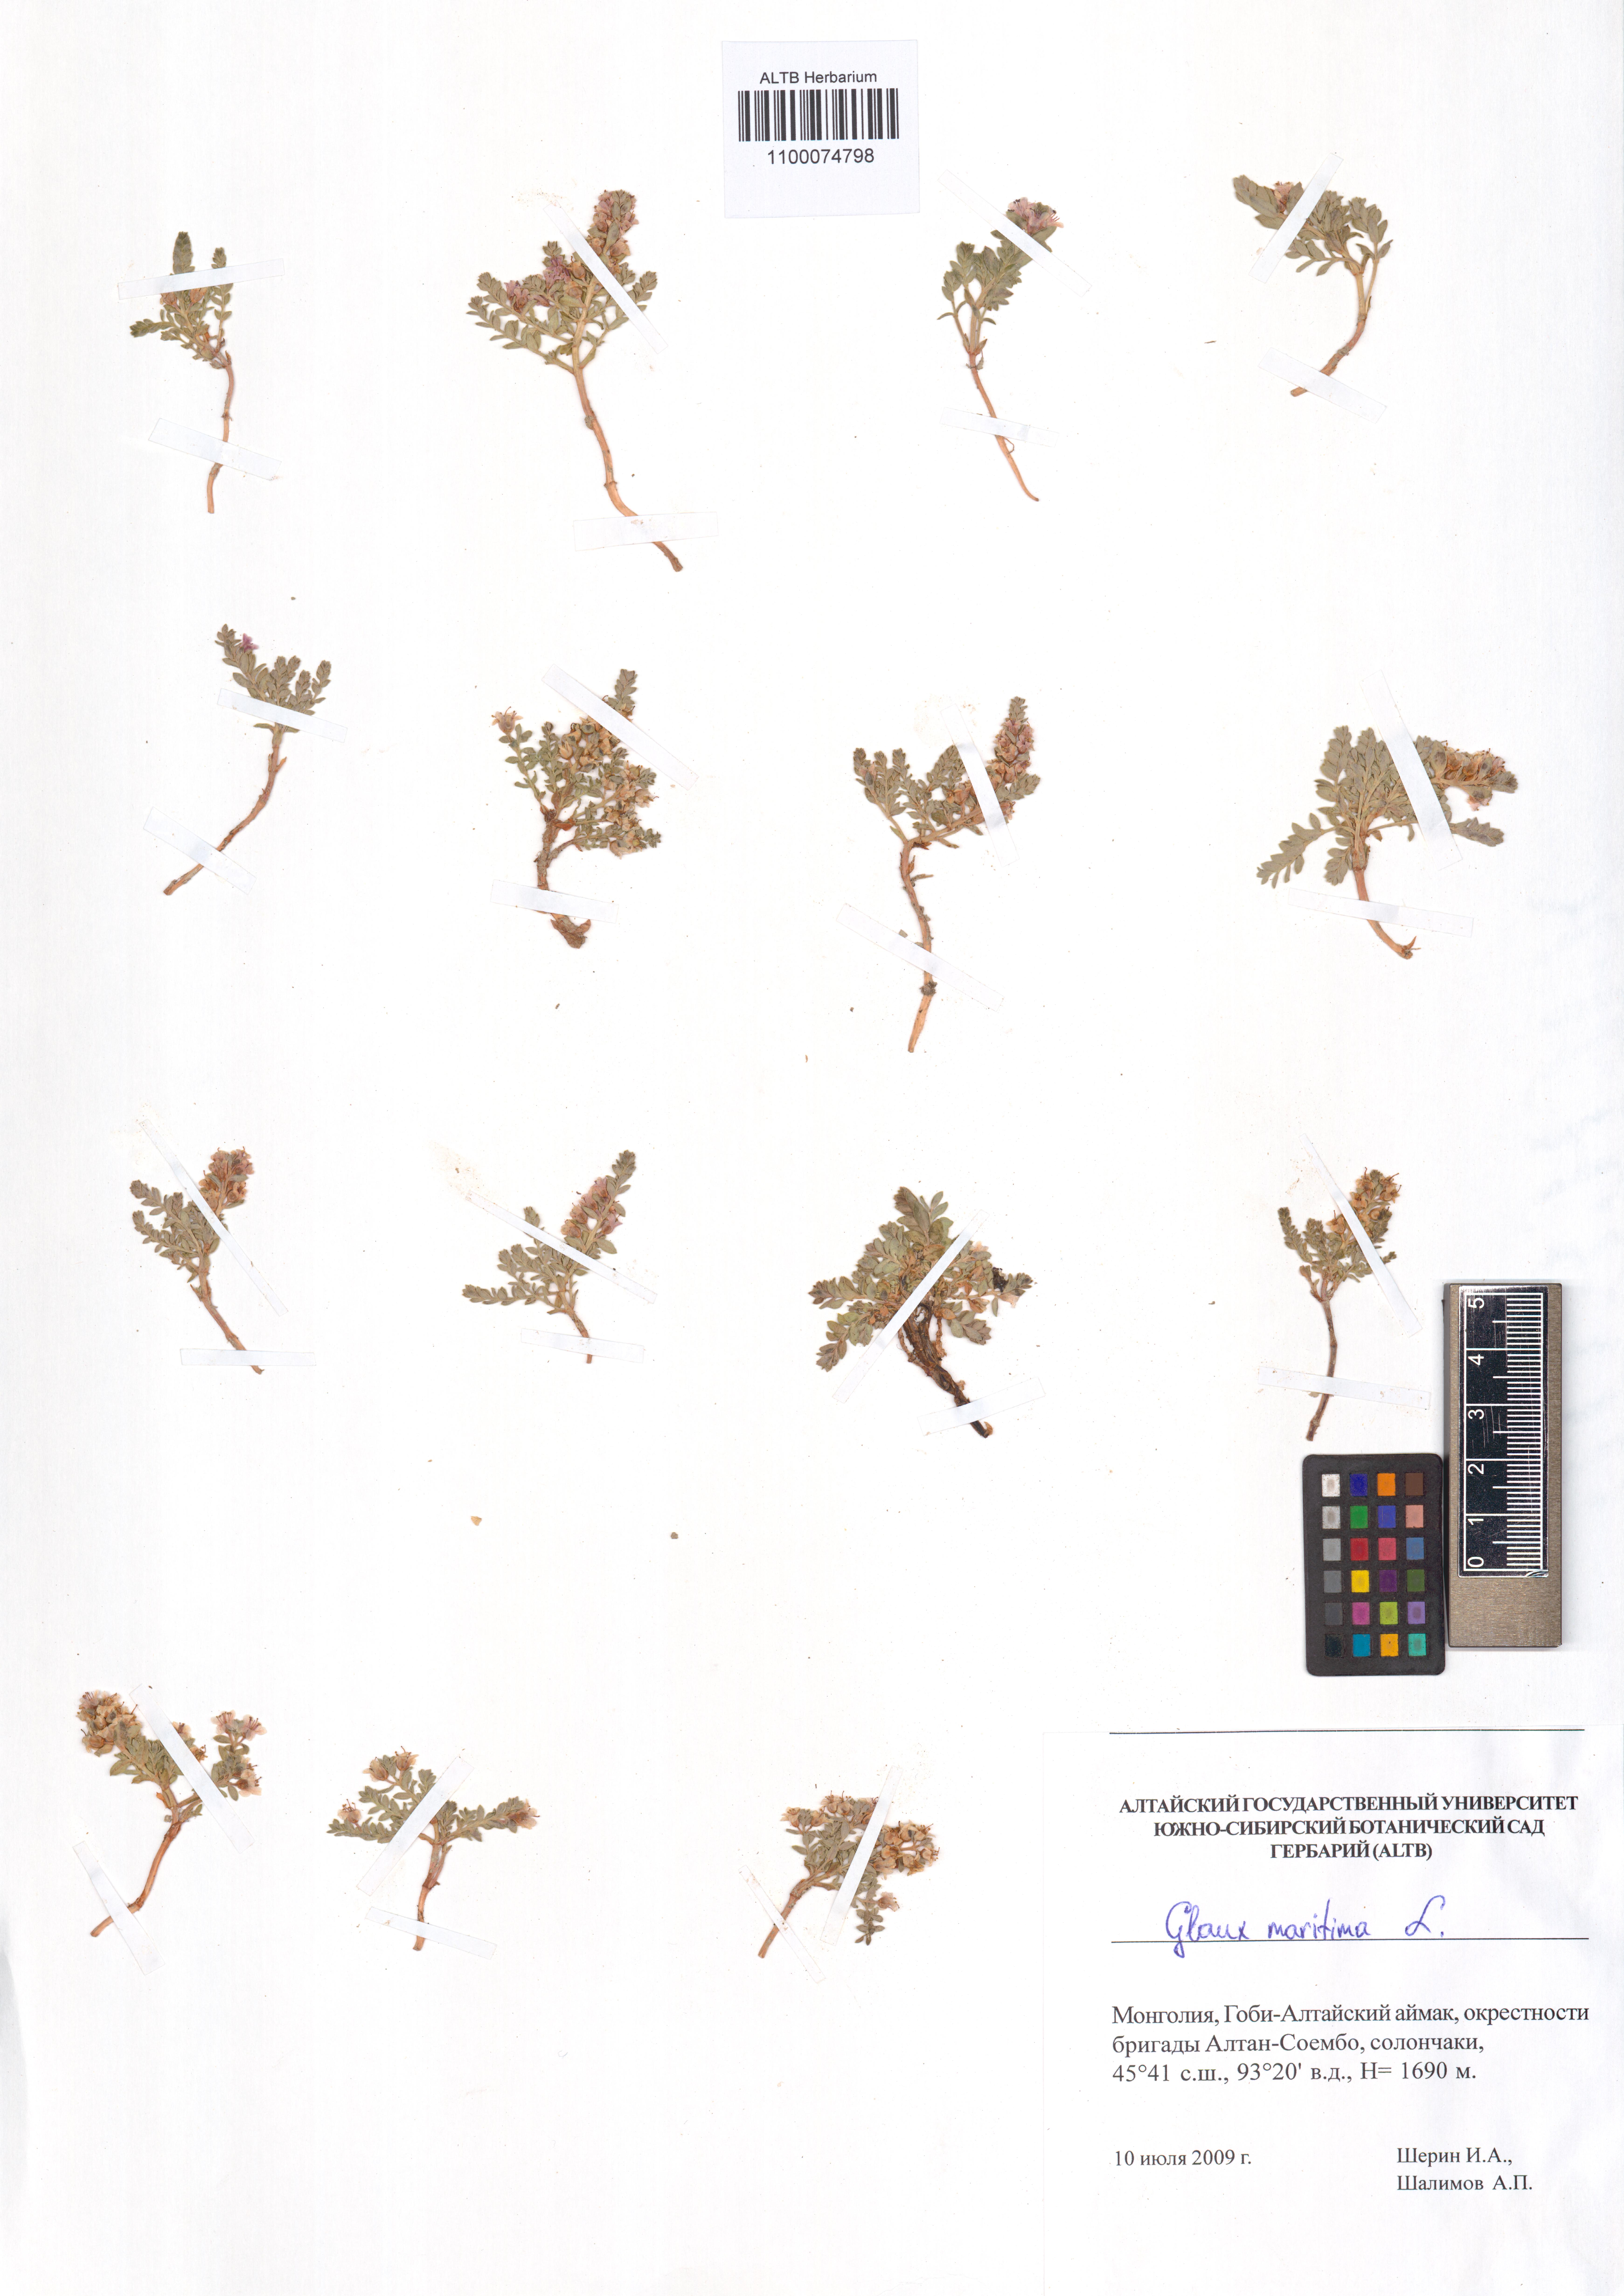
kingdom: Plantae
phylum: Tracheophyta
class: Magnoliopsida
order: Ericales
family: Primulaceae
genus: Lysimachia
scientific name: Lysimachia maritima
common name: Sea milkwort
